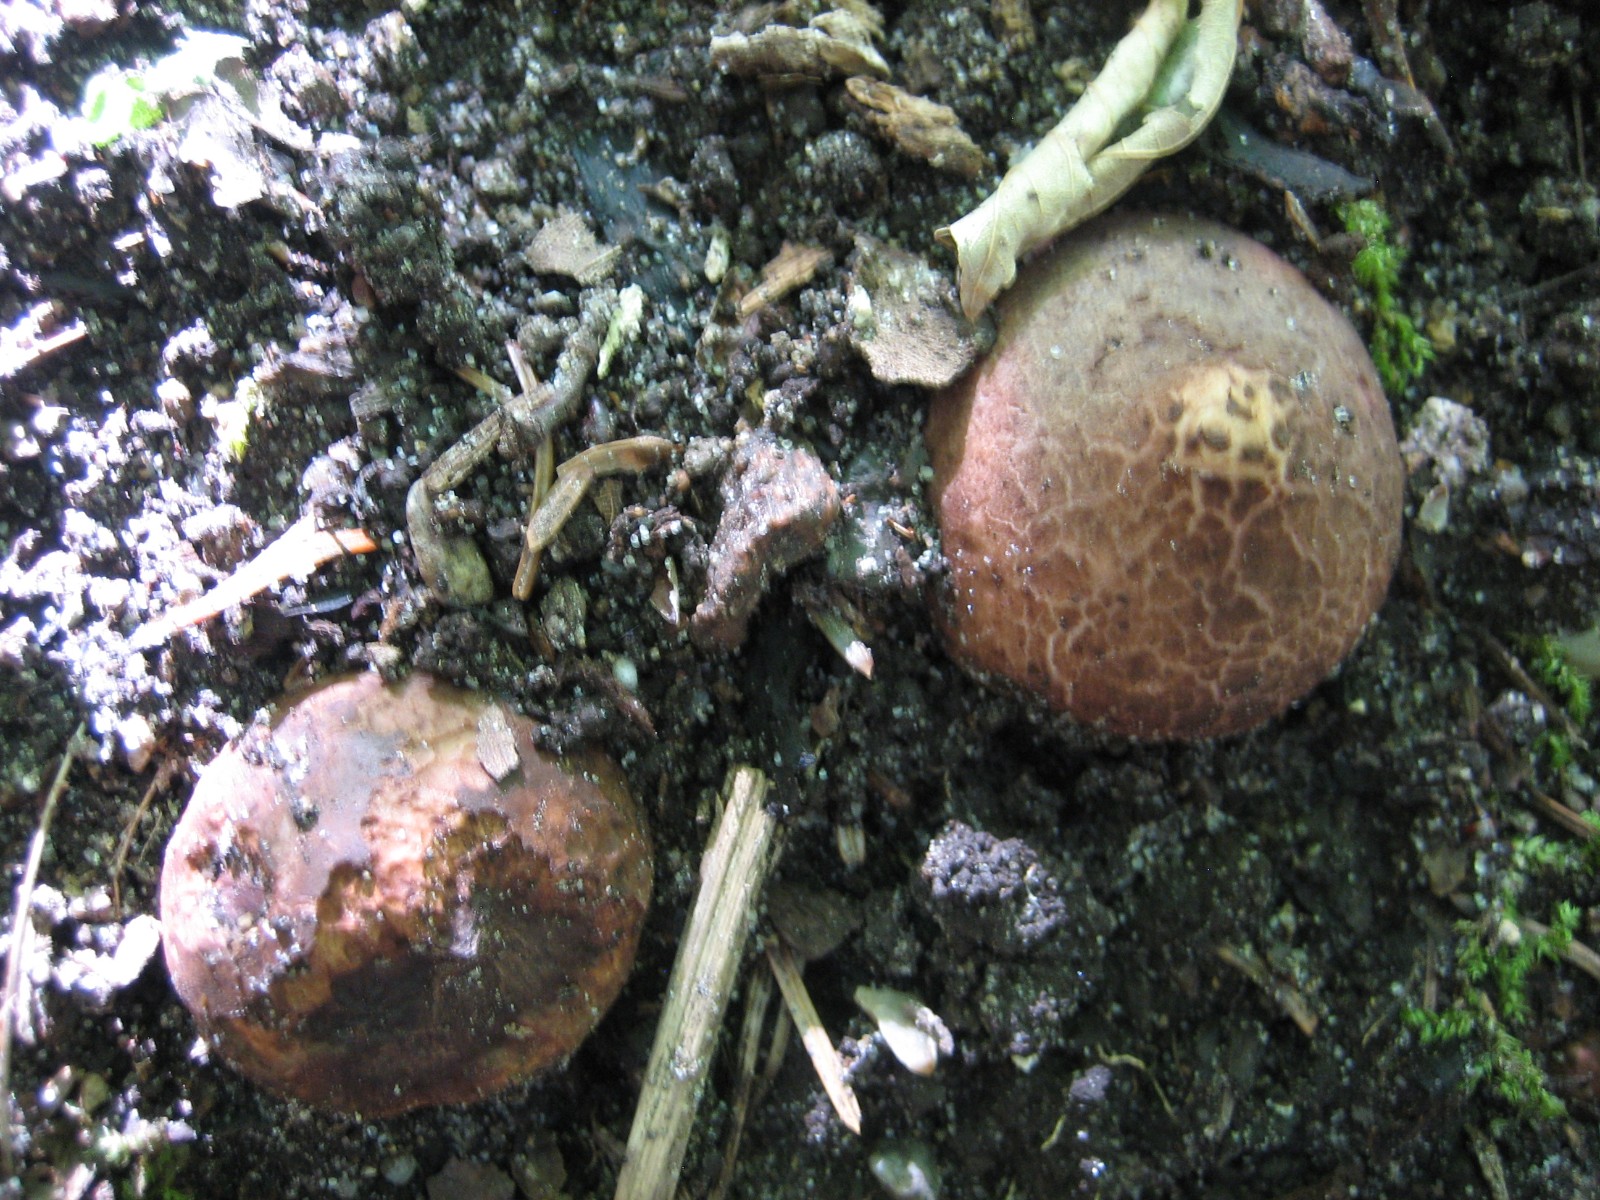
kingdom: Fungi
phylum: Basidiomycota
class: Agaricomycetes
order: Geastrales
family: Geastraceae
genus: Geastrum
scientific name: Geastrum michelianum
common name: kødet stjernebold
